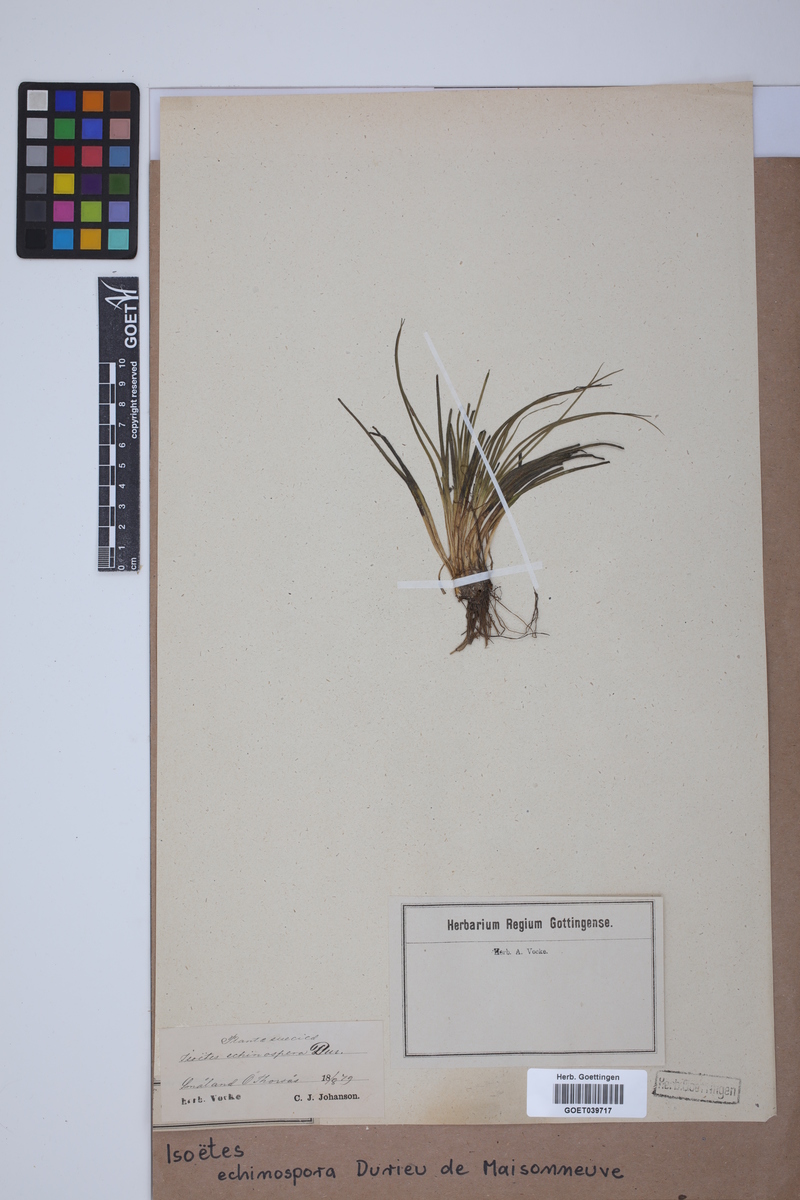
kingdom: Plantae
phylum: Tracheophyta
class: Lycopodiopsida
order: Isoetales
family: Isoetaceae
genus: Isoetes
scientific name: Isoetes echinospora
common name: Spring quillwort
